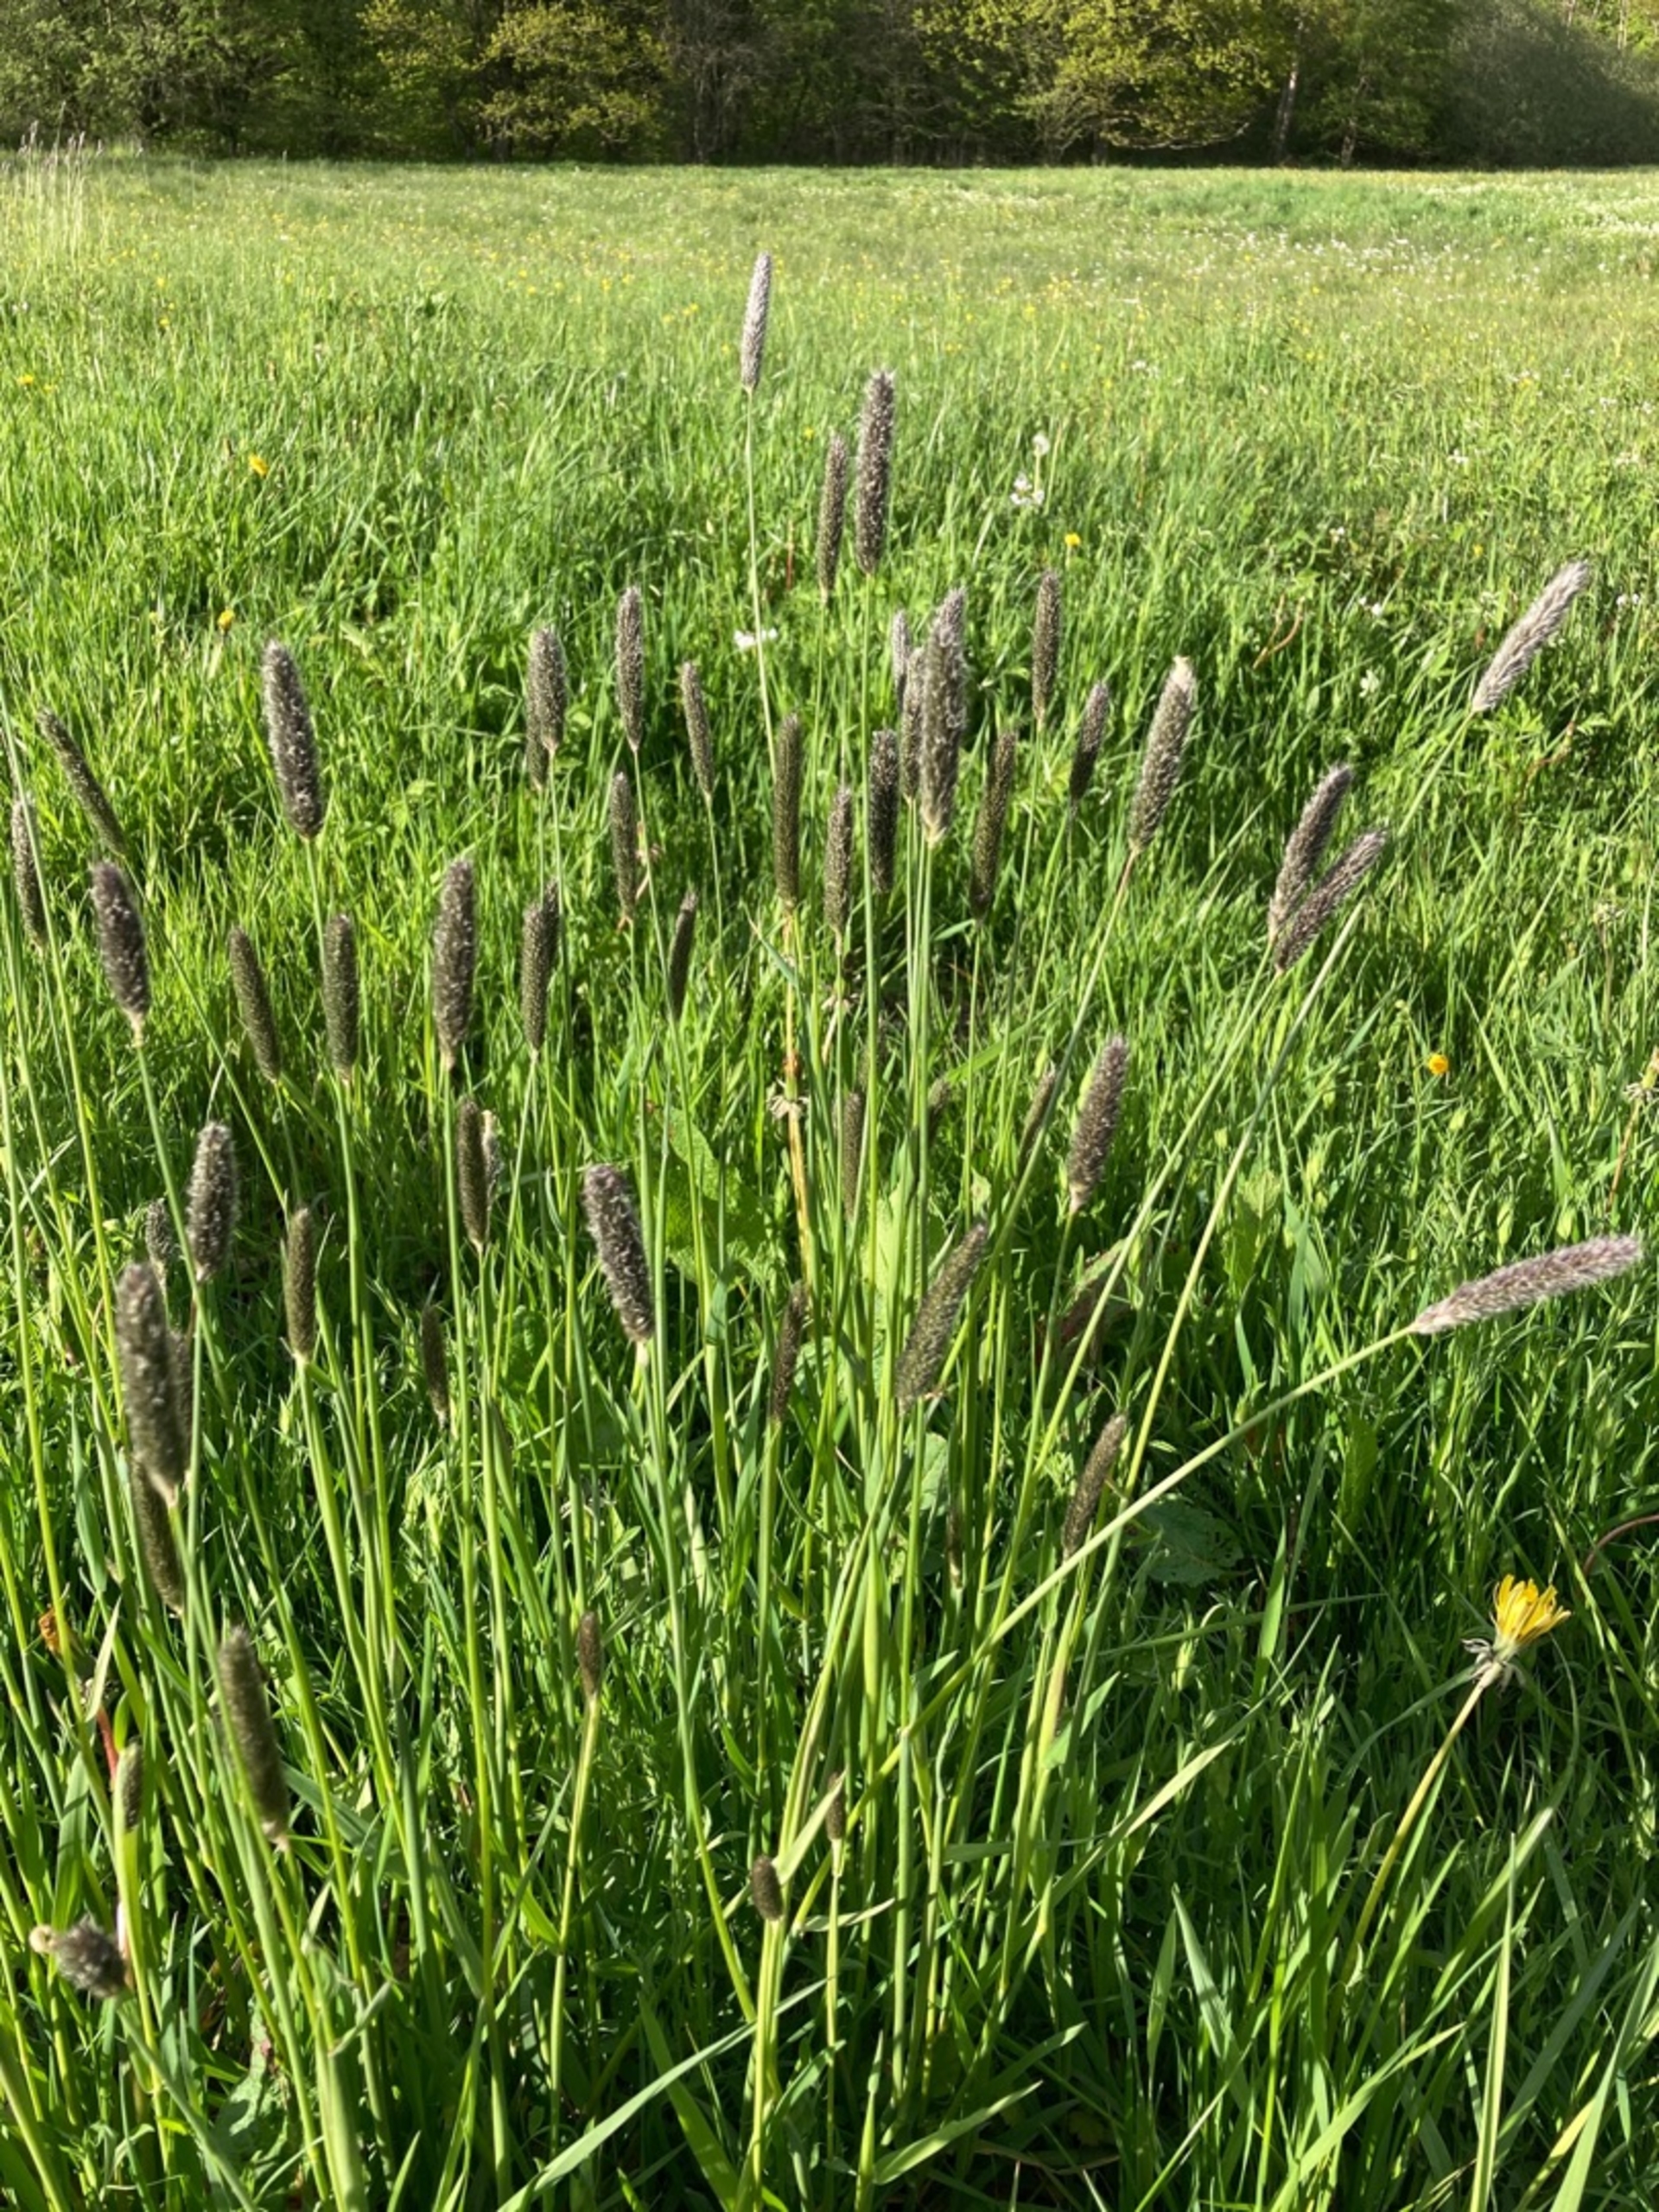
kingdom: Plantae
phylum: Tracheophyta
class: Liliopsida
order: Poales
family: Poaceae
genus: Alopecurus
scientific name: Alopecurus pratensis
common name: Eng-rævehale
